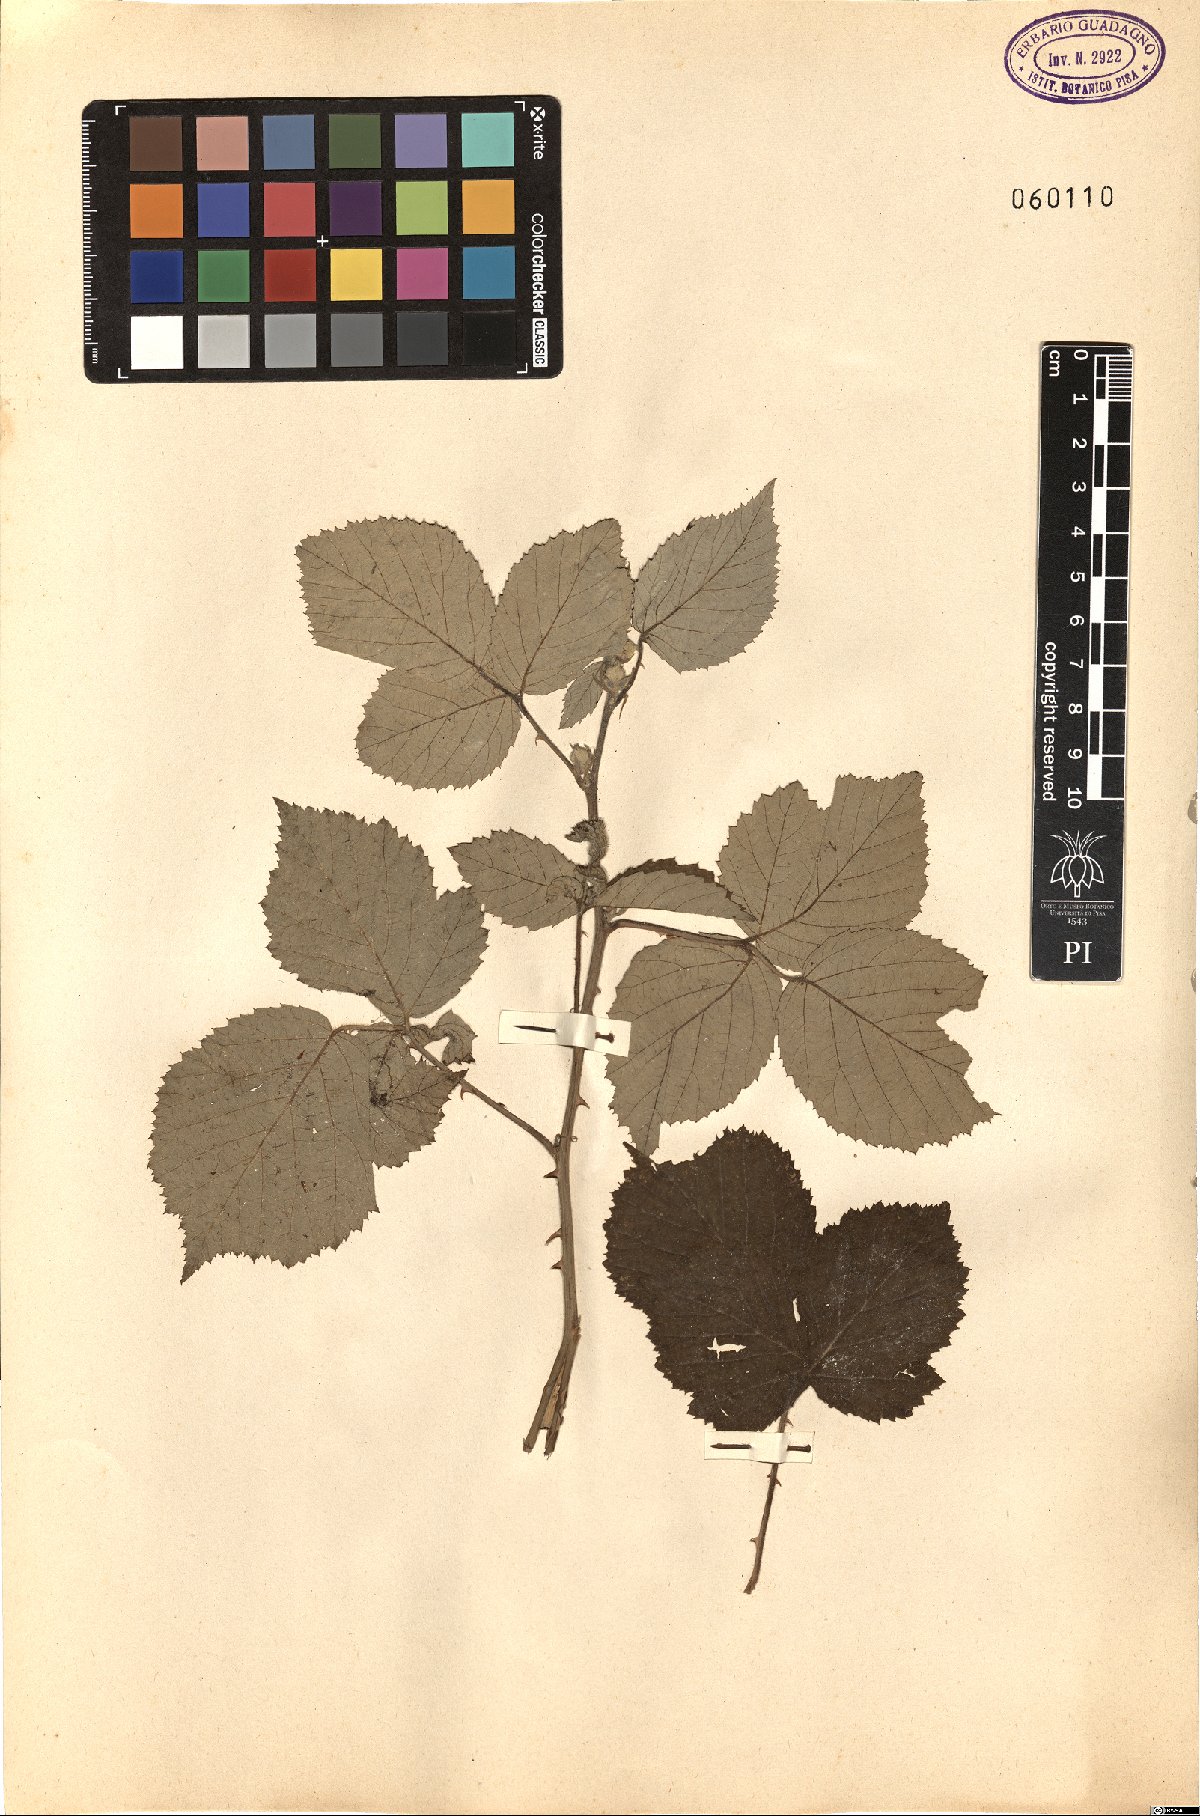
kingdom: Plantae
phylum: Tracheophyta
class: Magnoliopsida
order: Rosales
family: Rosaceae
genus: Rubus
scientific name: Rubus canescens
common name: Wooly blackberry
